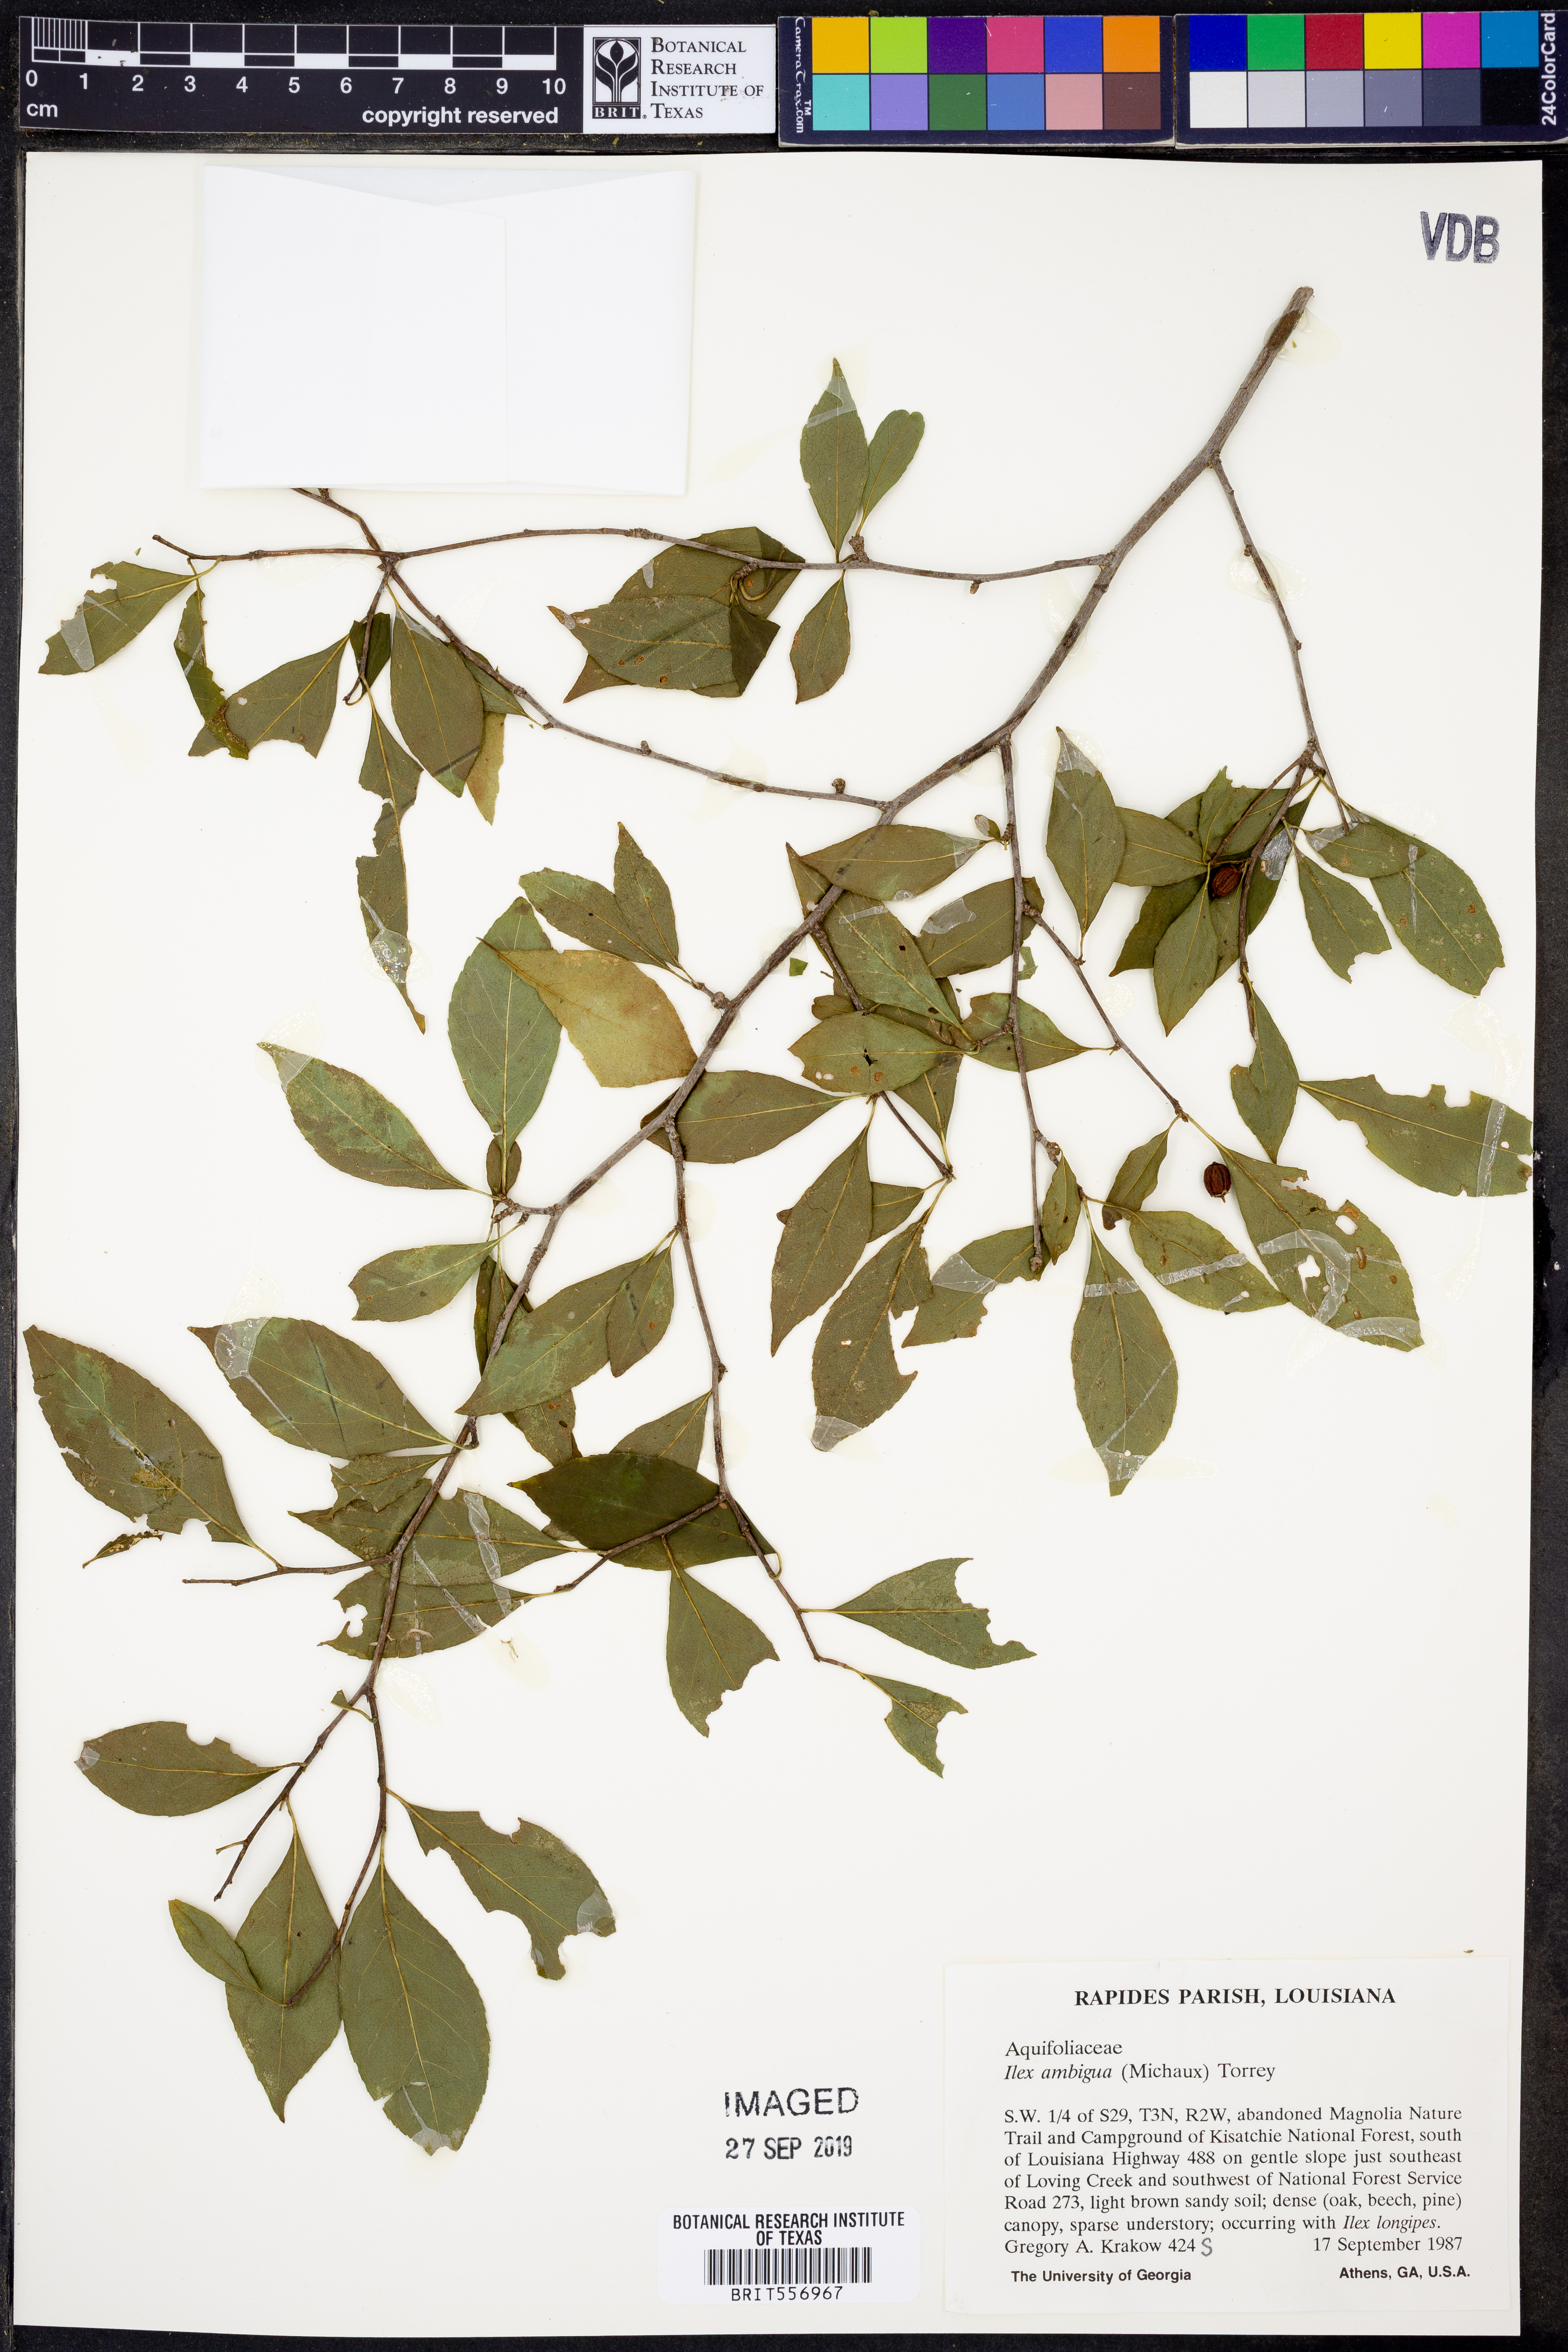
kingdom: Plantae
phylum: Tracheophyta
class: Magnoliopsida
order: Aquifoliales
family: Aquifoliaceae
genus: Ilex
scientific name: Ilex ambigua
